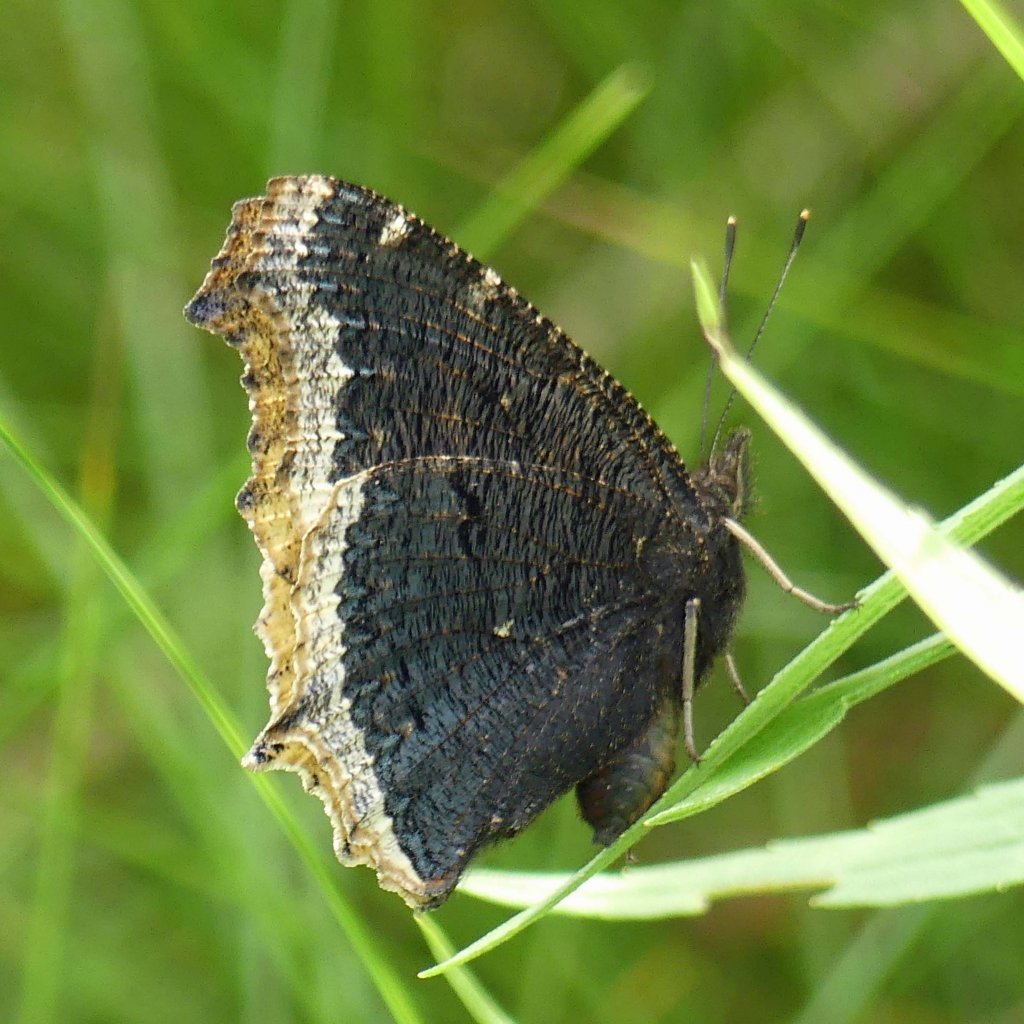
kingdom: Animalia
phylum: Arthropoda
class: Insecta
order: Lepidoptera
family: Nymphalidae
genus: Nymphalis
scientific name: Nymphalis antiopa
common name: Mourning Cloak
